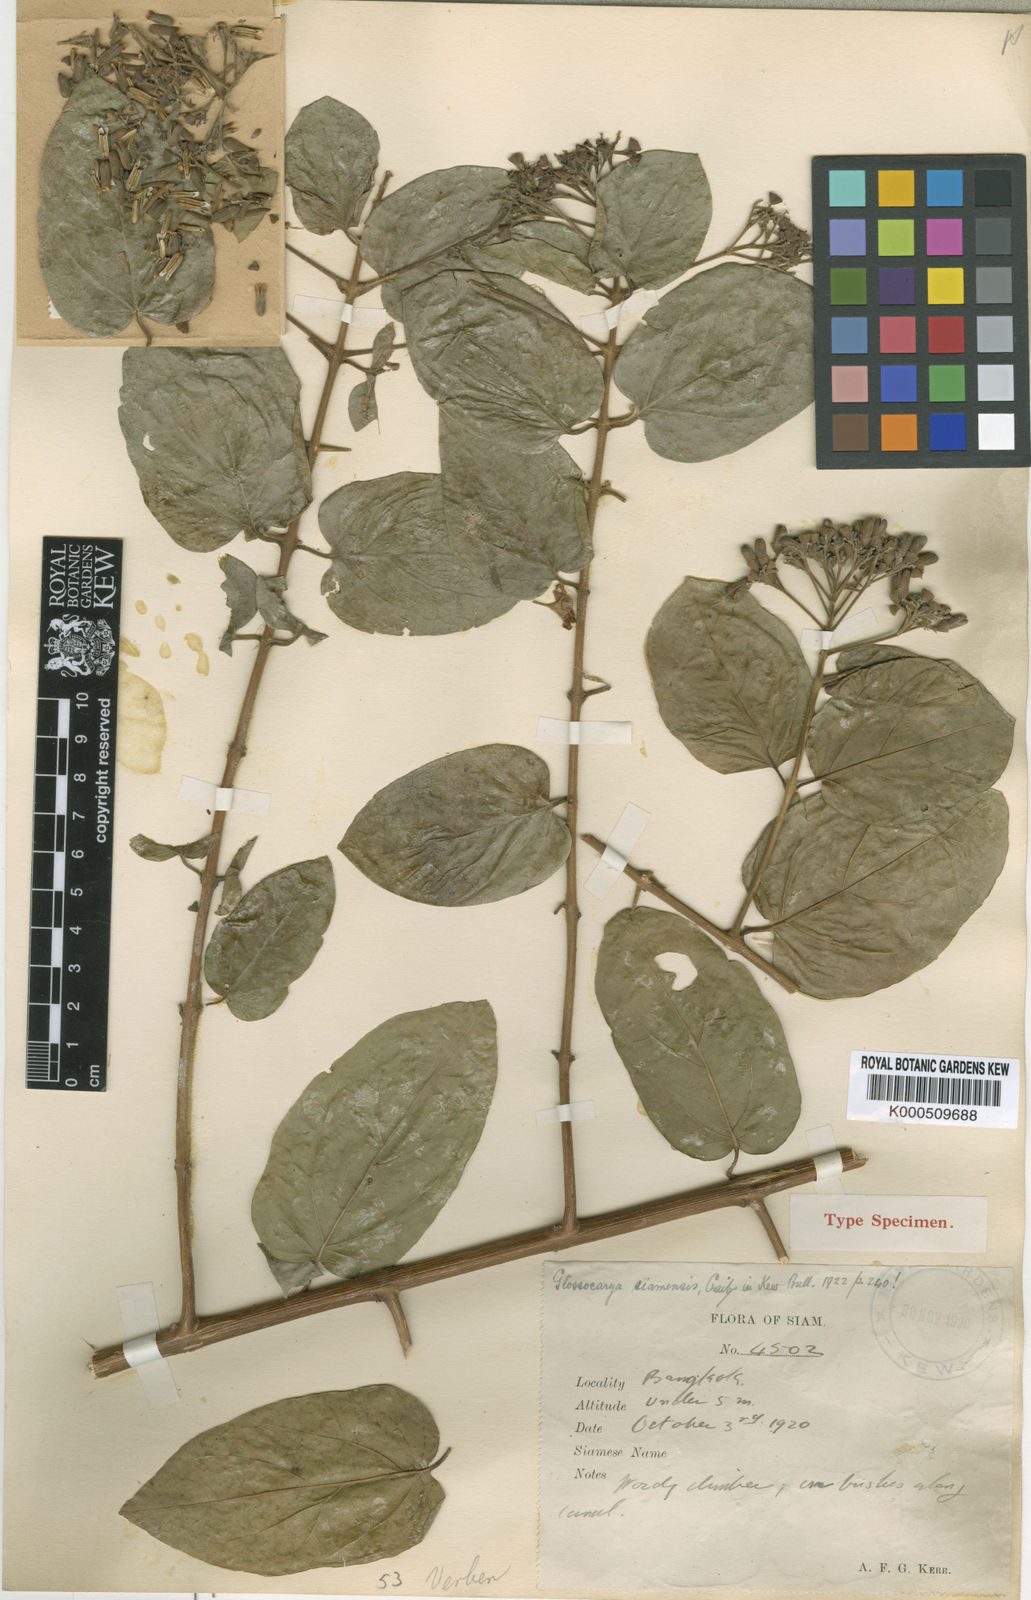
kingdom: Plantae
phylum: Tracheophyta
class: Magnoliopsida
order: Lamiales
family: Lamiaceae
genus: Glossocarya
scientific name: Glossocarya siamensis
